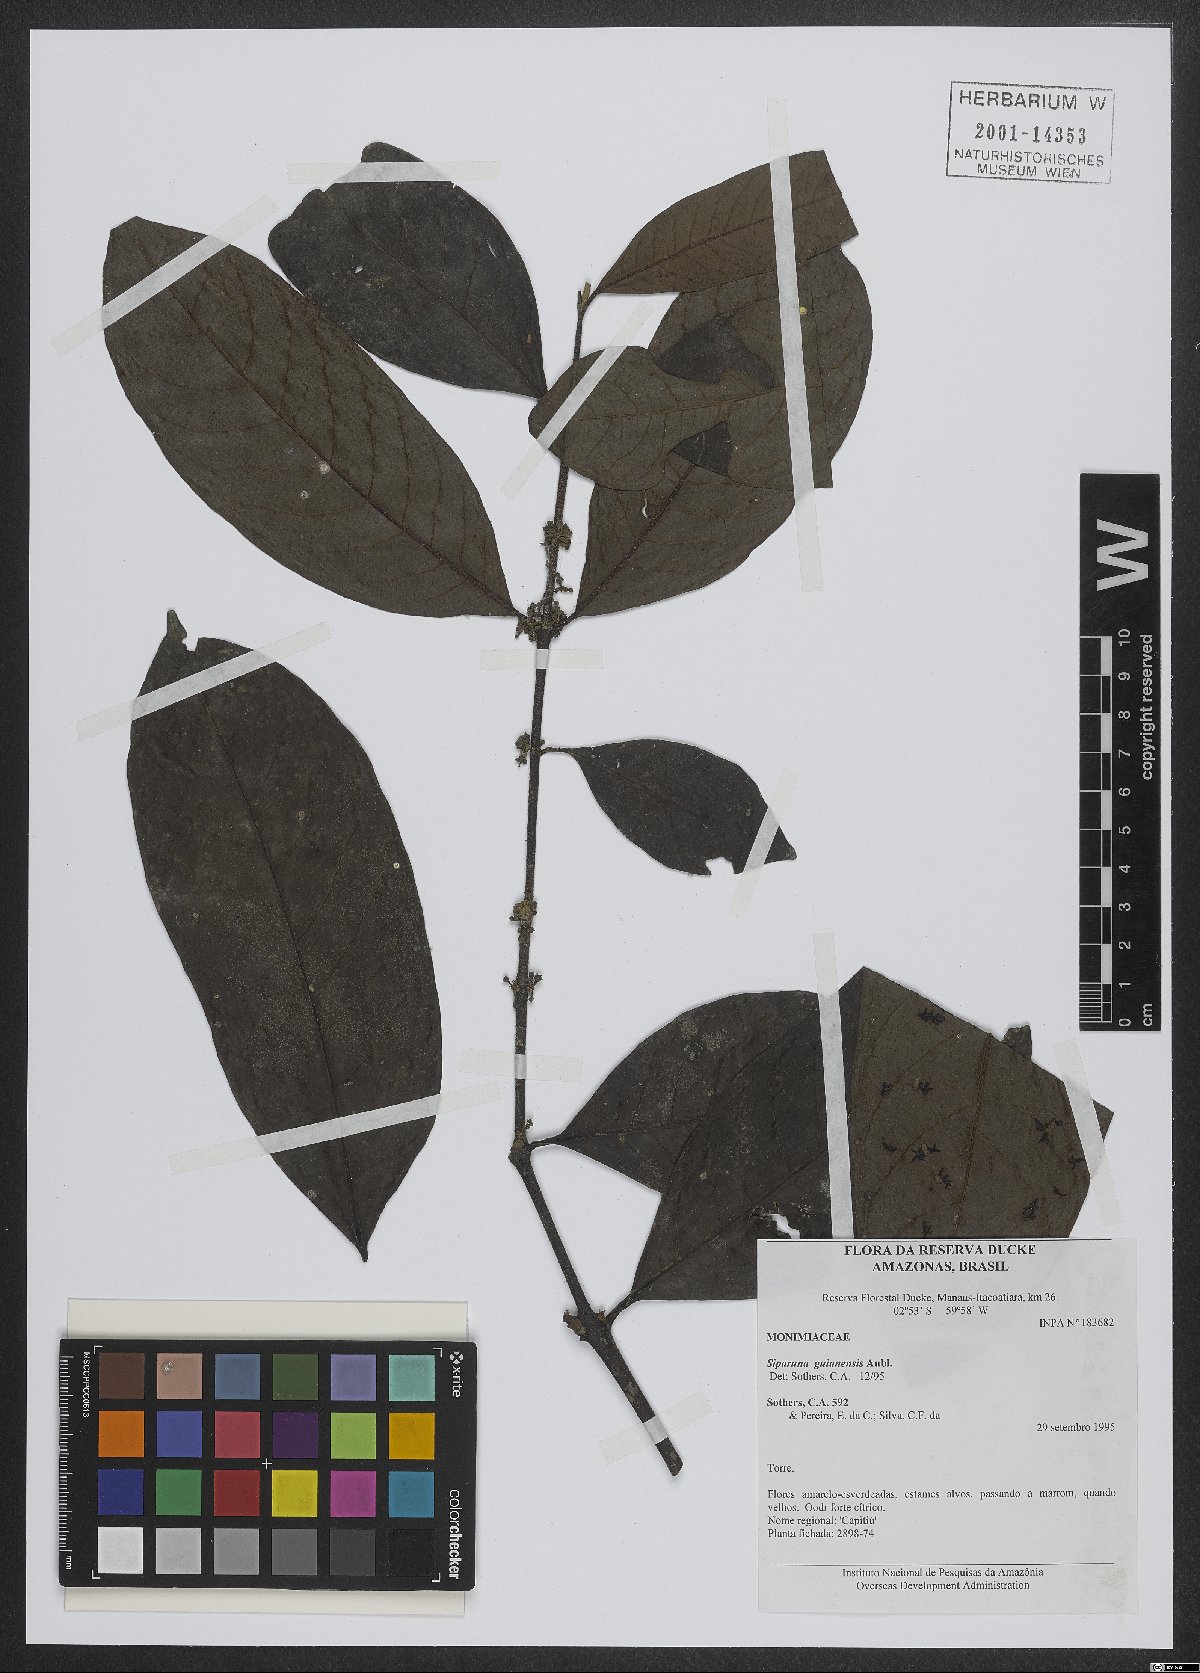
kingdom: Plantae
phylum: Tracheophyta
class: Magnoliopsida
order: Laurales
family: Siparunaceae
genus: Siparuna
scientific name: Siparuna guianensis
